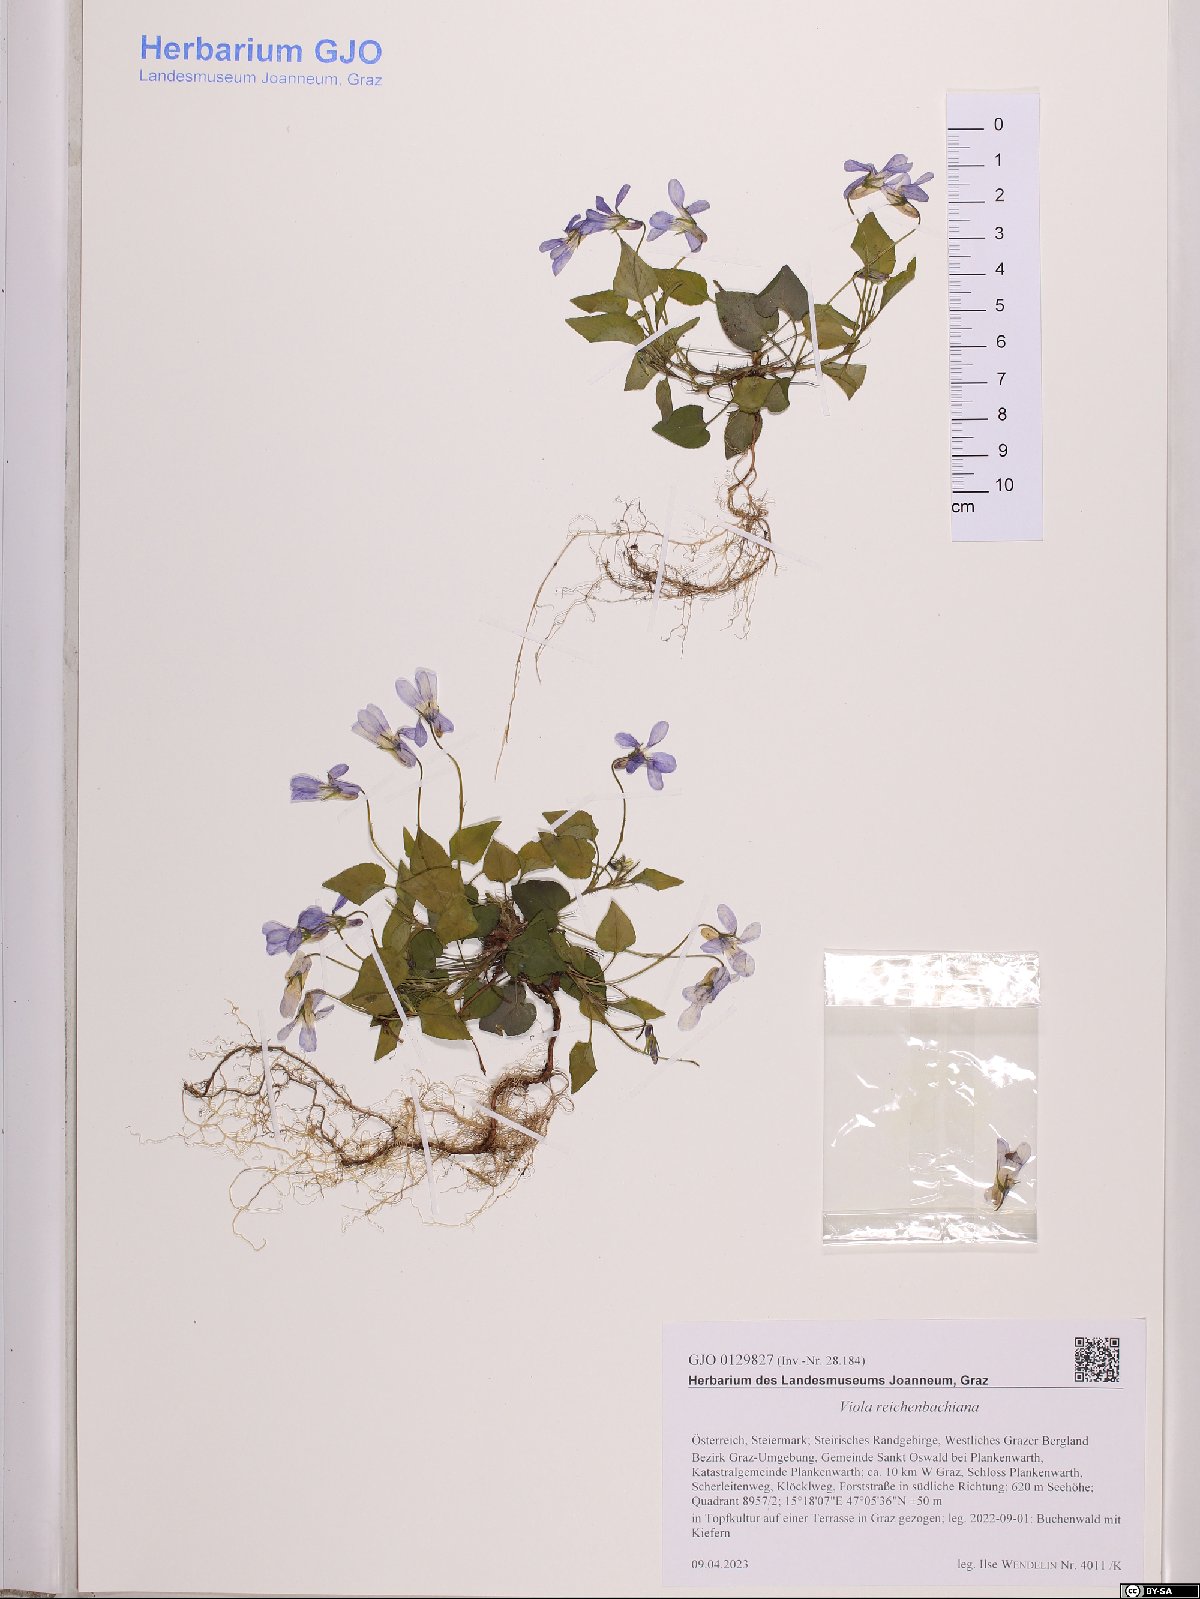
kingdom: Plantae
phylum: Tracheophyta
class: Magnoliopsida
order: Malpighiales
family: Violaceae
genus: Viola
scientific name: Viola reichenbachiana
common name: Early dog-violet
